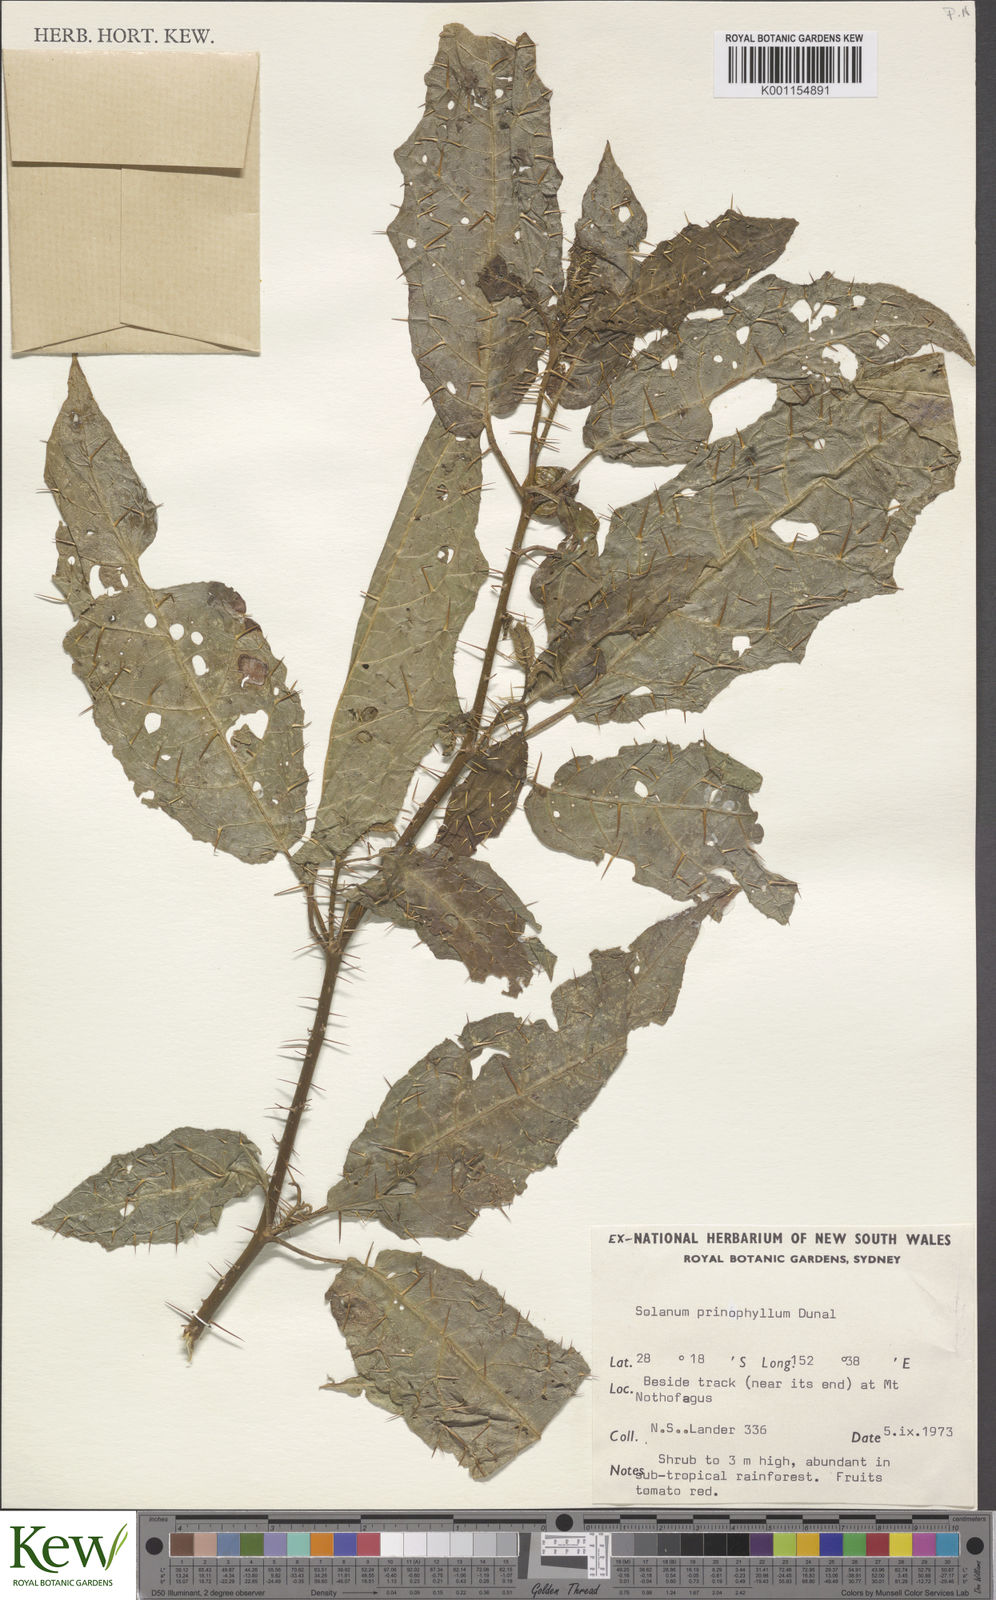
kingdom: Plantae
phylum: Tracheophyta
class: Magnoliopsida
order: Solanales
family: Solanaceae
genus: Solanum
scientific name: Solanum prinophyllum
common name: Forest nightshade
